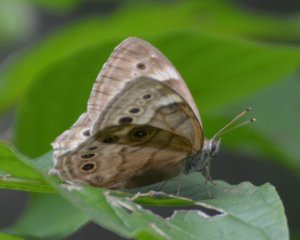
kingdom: Animalia
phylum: Arthropoda
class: Insecta
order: Lepidoptera
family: Nymphalidae
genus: Lethe
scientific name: Lethe anthedon
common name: Northern Pearly-Eye
